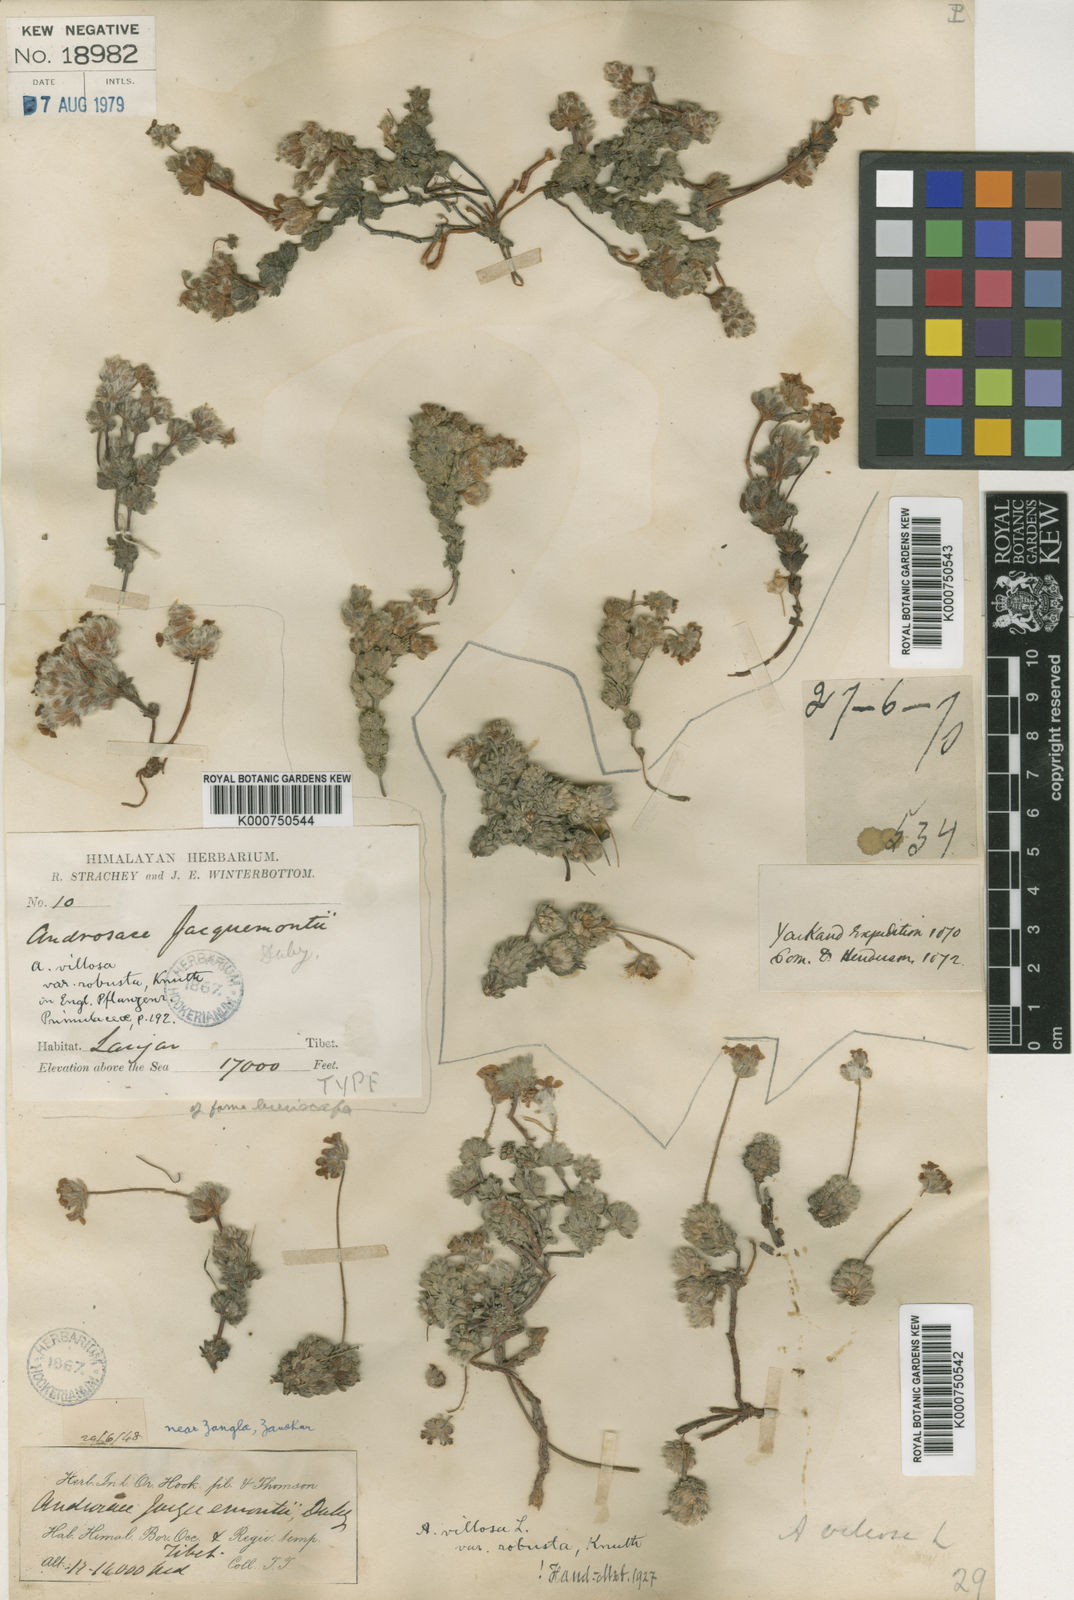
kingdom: Plantae
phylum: Tracheophyta
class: Magnoliopsida
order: Ericales
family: Primulaceae
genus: Androsace
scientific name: Androsace jacquemontii
